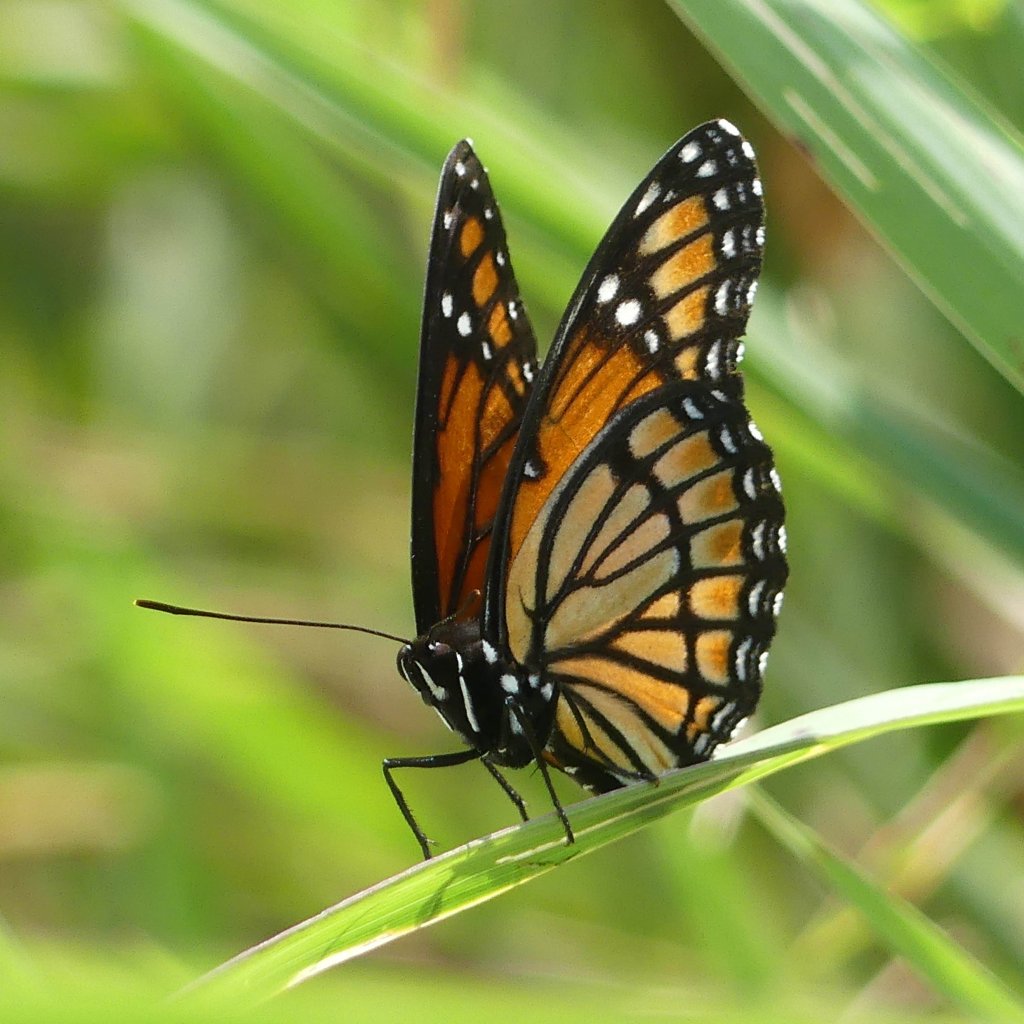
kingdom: Animalia
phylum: Arthropoda
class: Insecta
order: Lepidoptera
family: Nymphalidae
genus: Limenitis
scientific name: Limenitis archippus
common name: Viceroy
